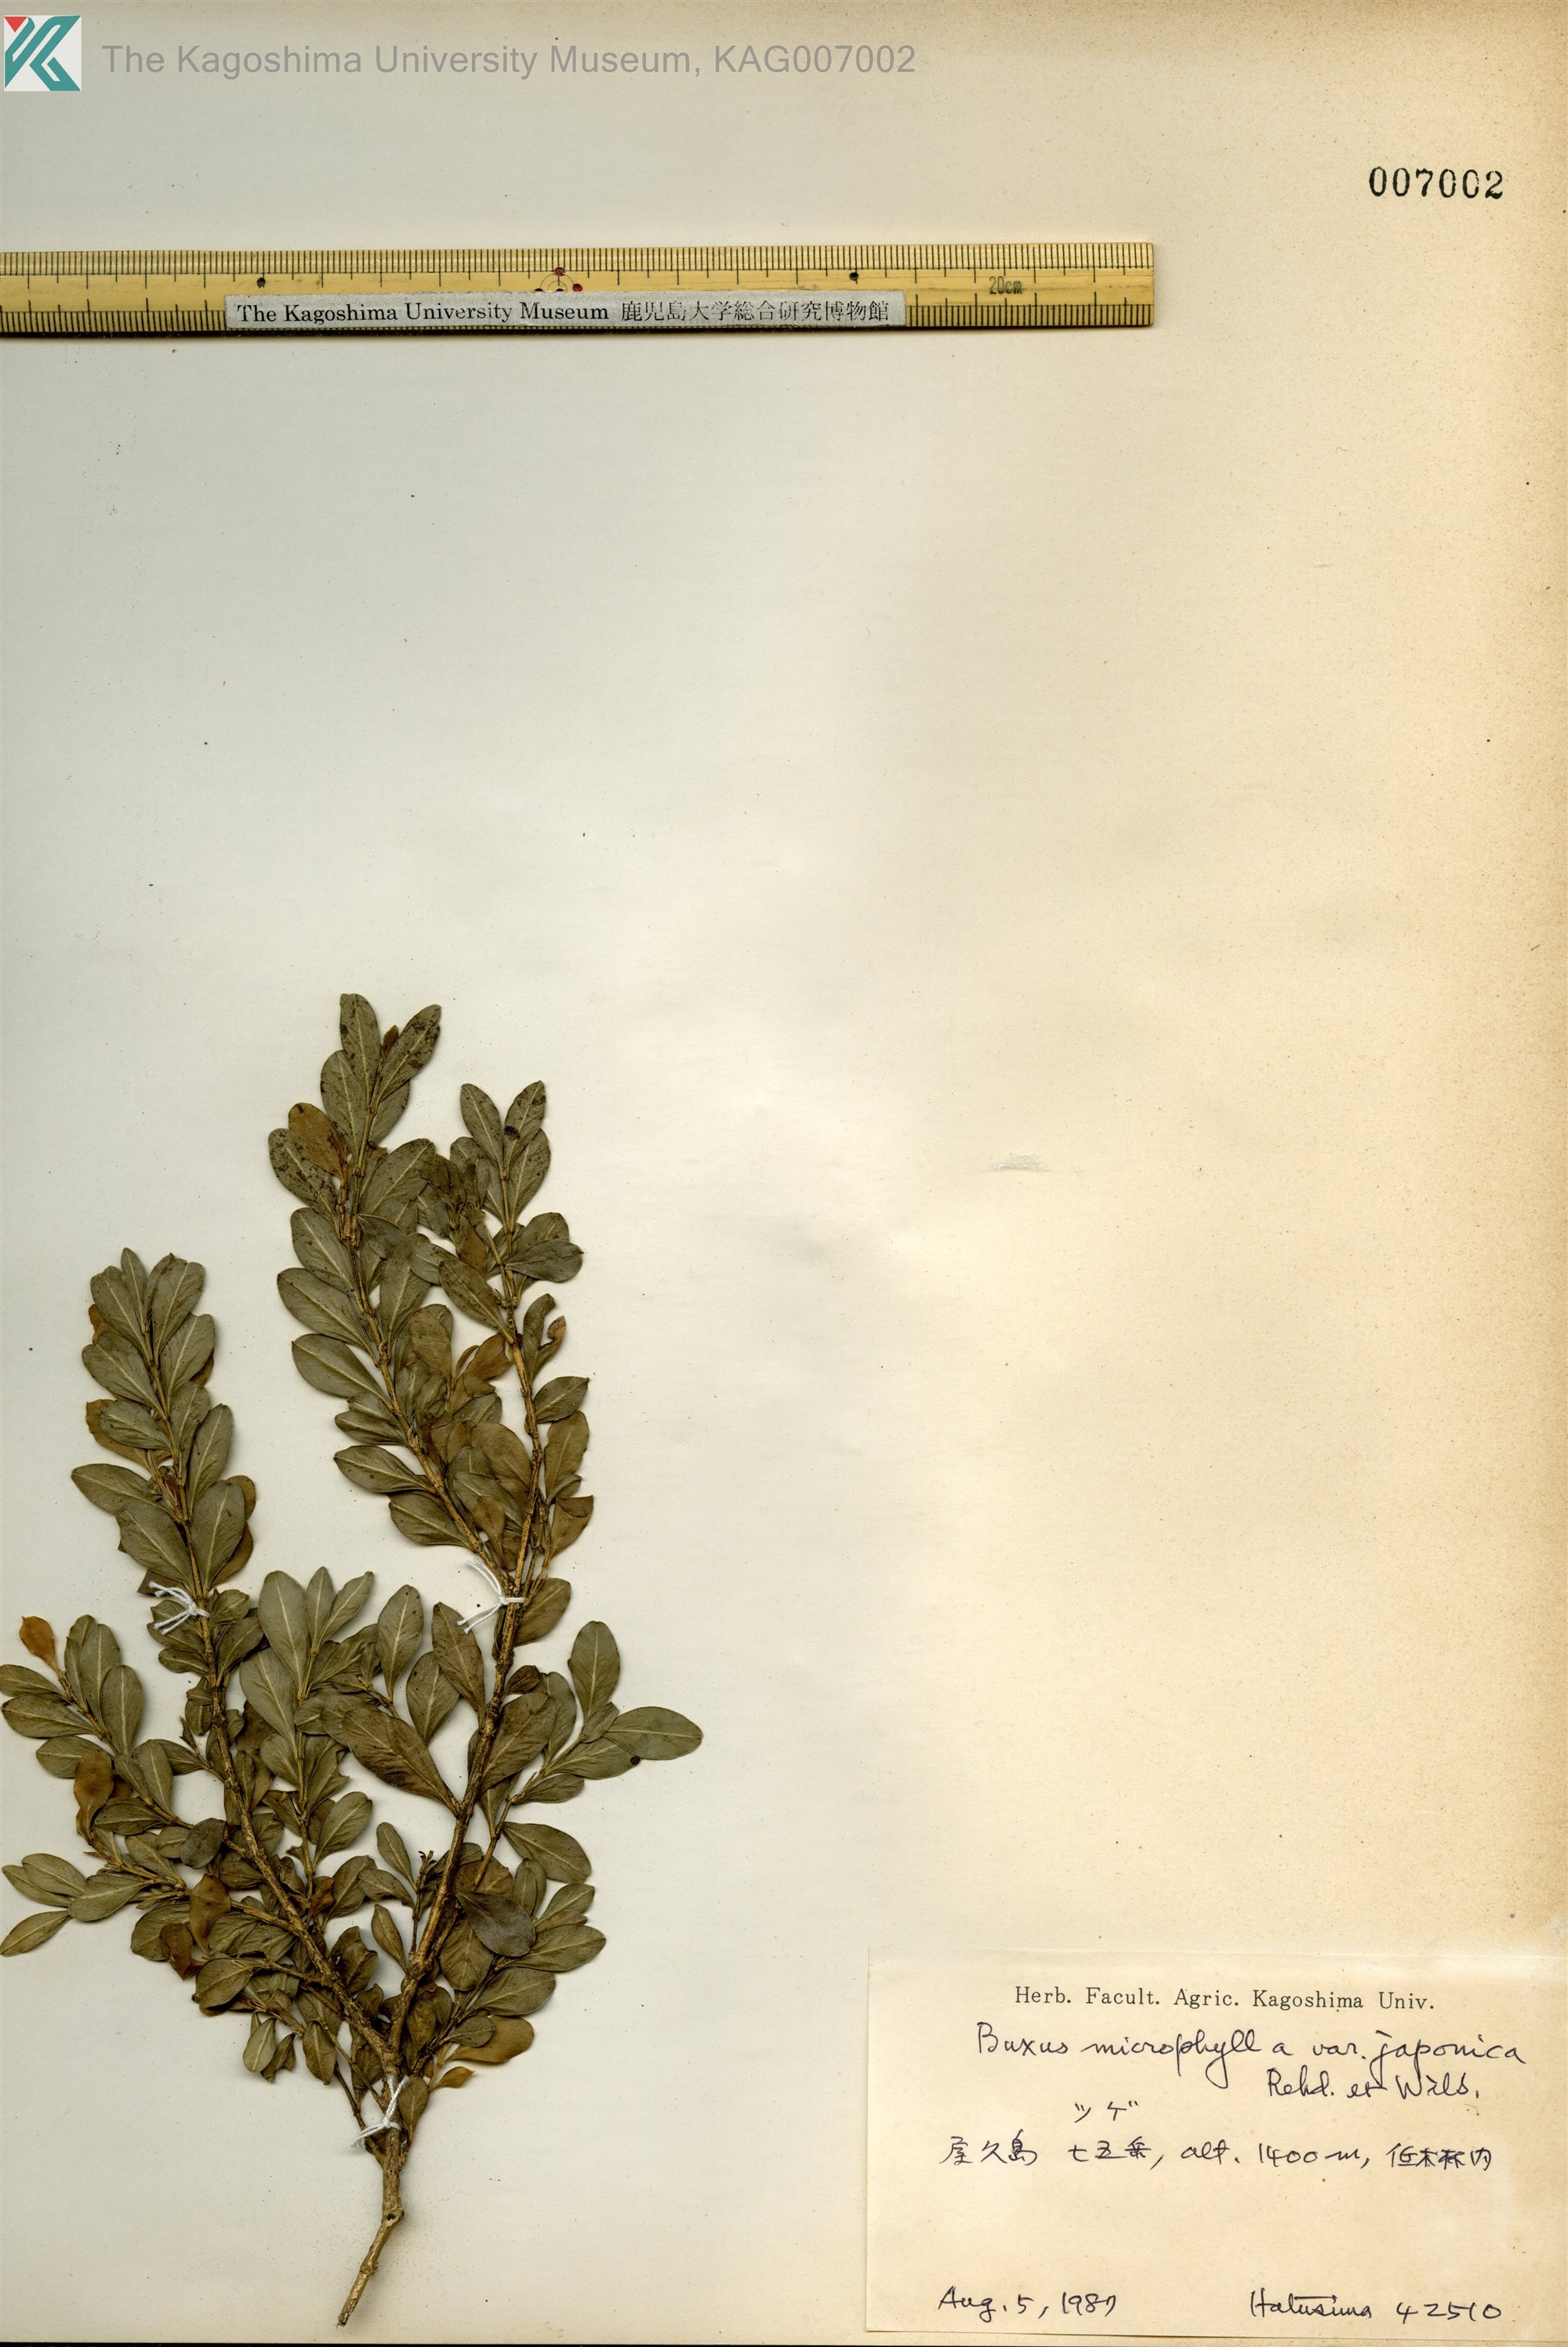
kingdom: Plantae
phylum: Tracheophyta
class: Magnoliopsida
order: Buxales
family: Buxaceae
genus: Buxus
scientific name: Buxus microphylla
